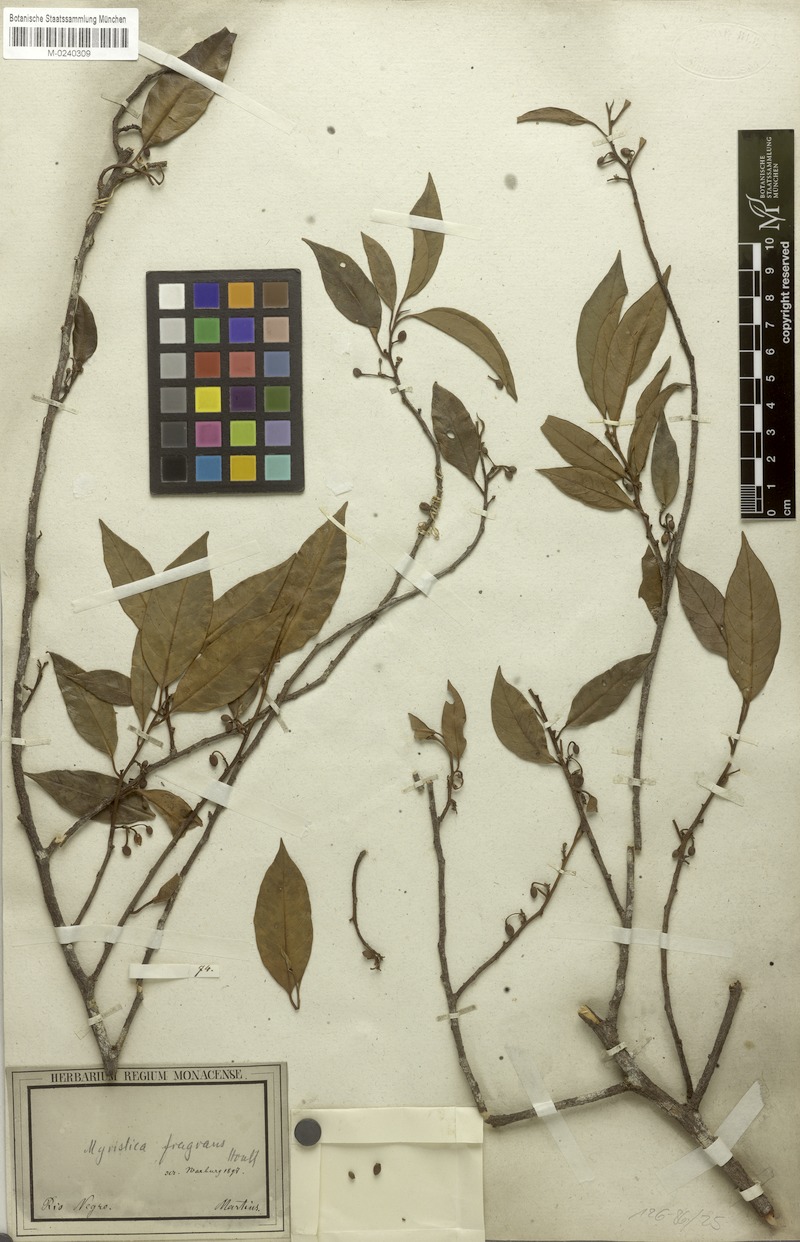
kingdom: Plantae
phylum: Tracheophyta
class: Magnoliopsida
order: Magnoliales
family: Myristicaceae
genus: Myristica
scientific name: Myristica fragrans
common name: Nutmeg
